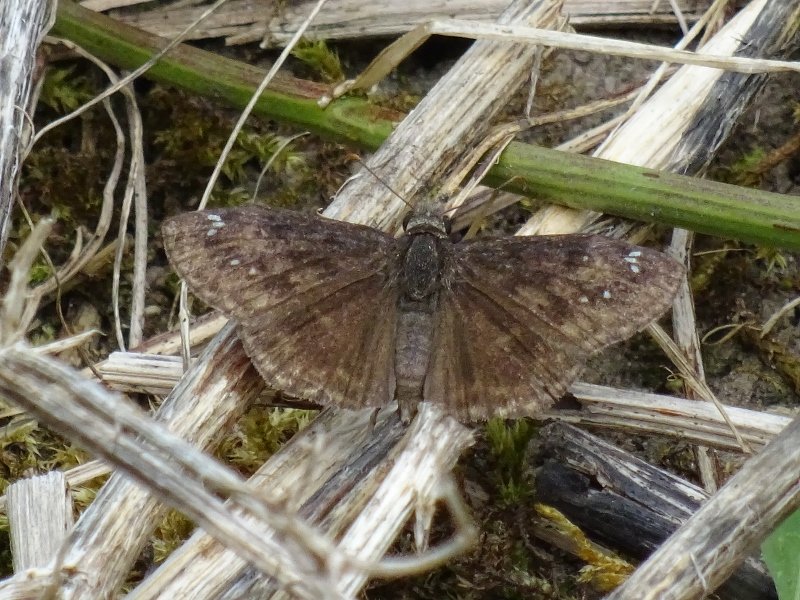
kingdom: Animalia
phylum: Arthropoda
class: Insecta
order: Lepidoptera
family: Hesperiidae
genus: Gesta
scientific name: Gesta
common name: Wild Indigo Duskywing
